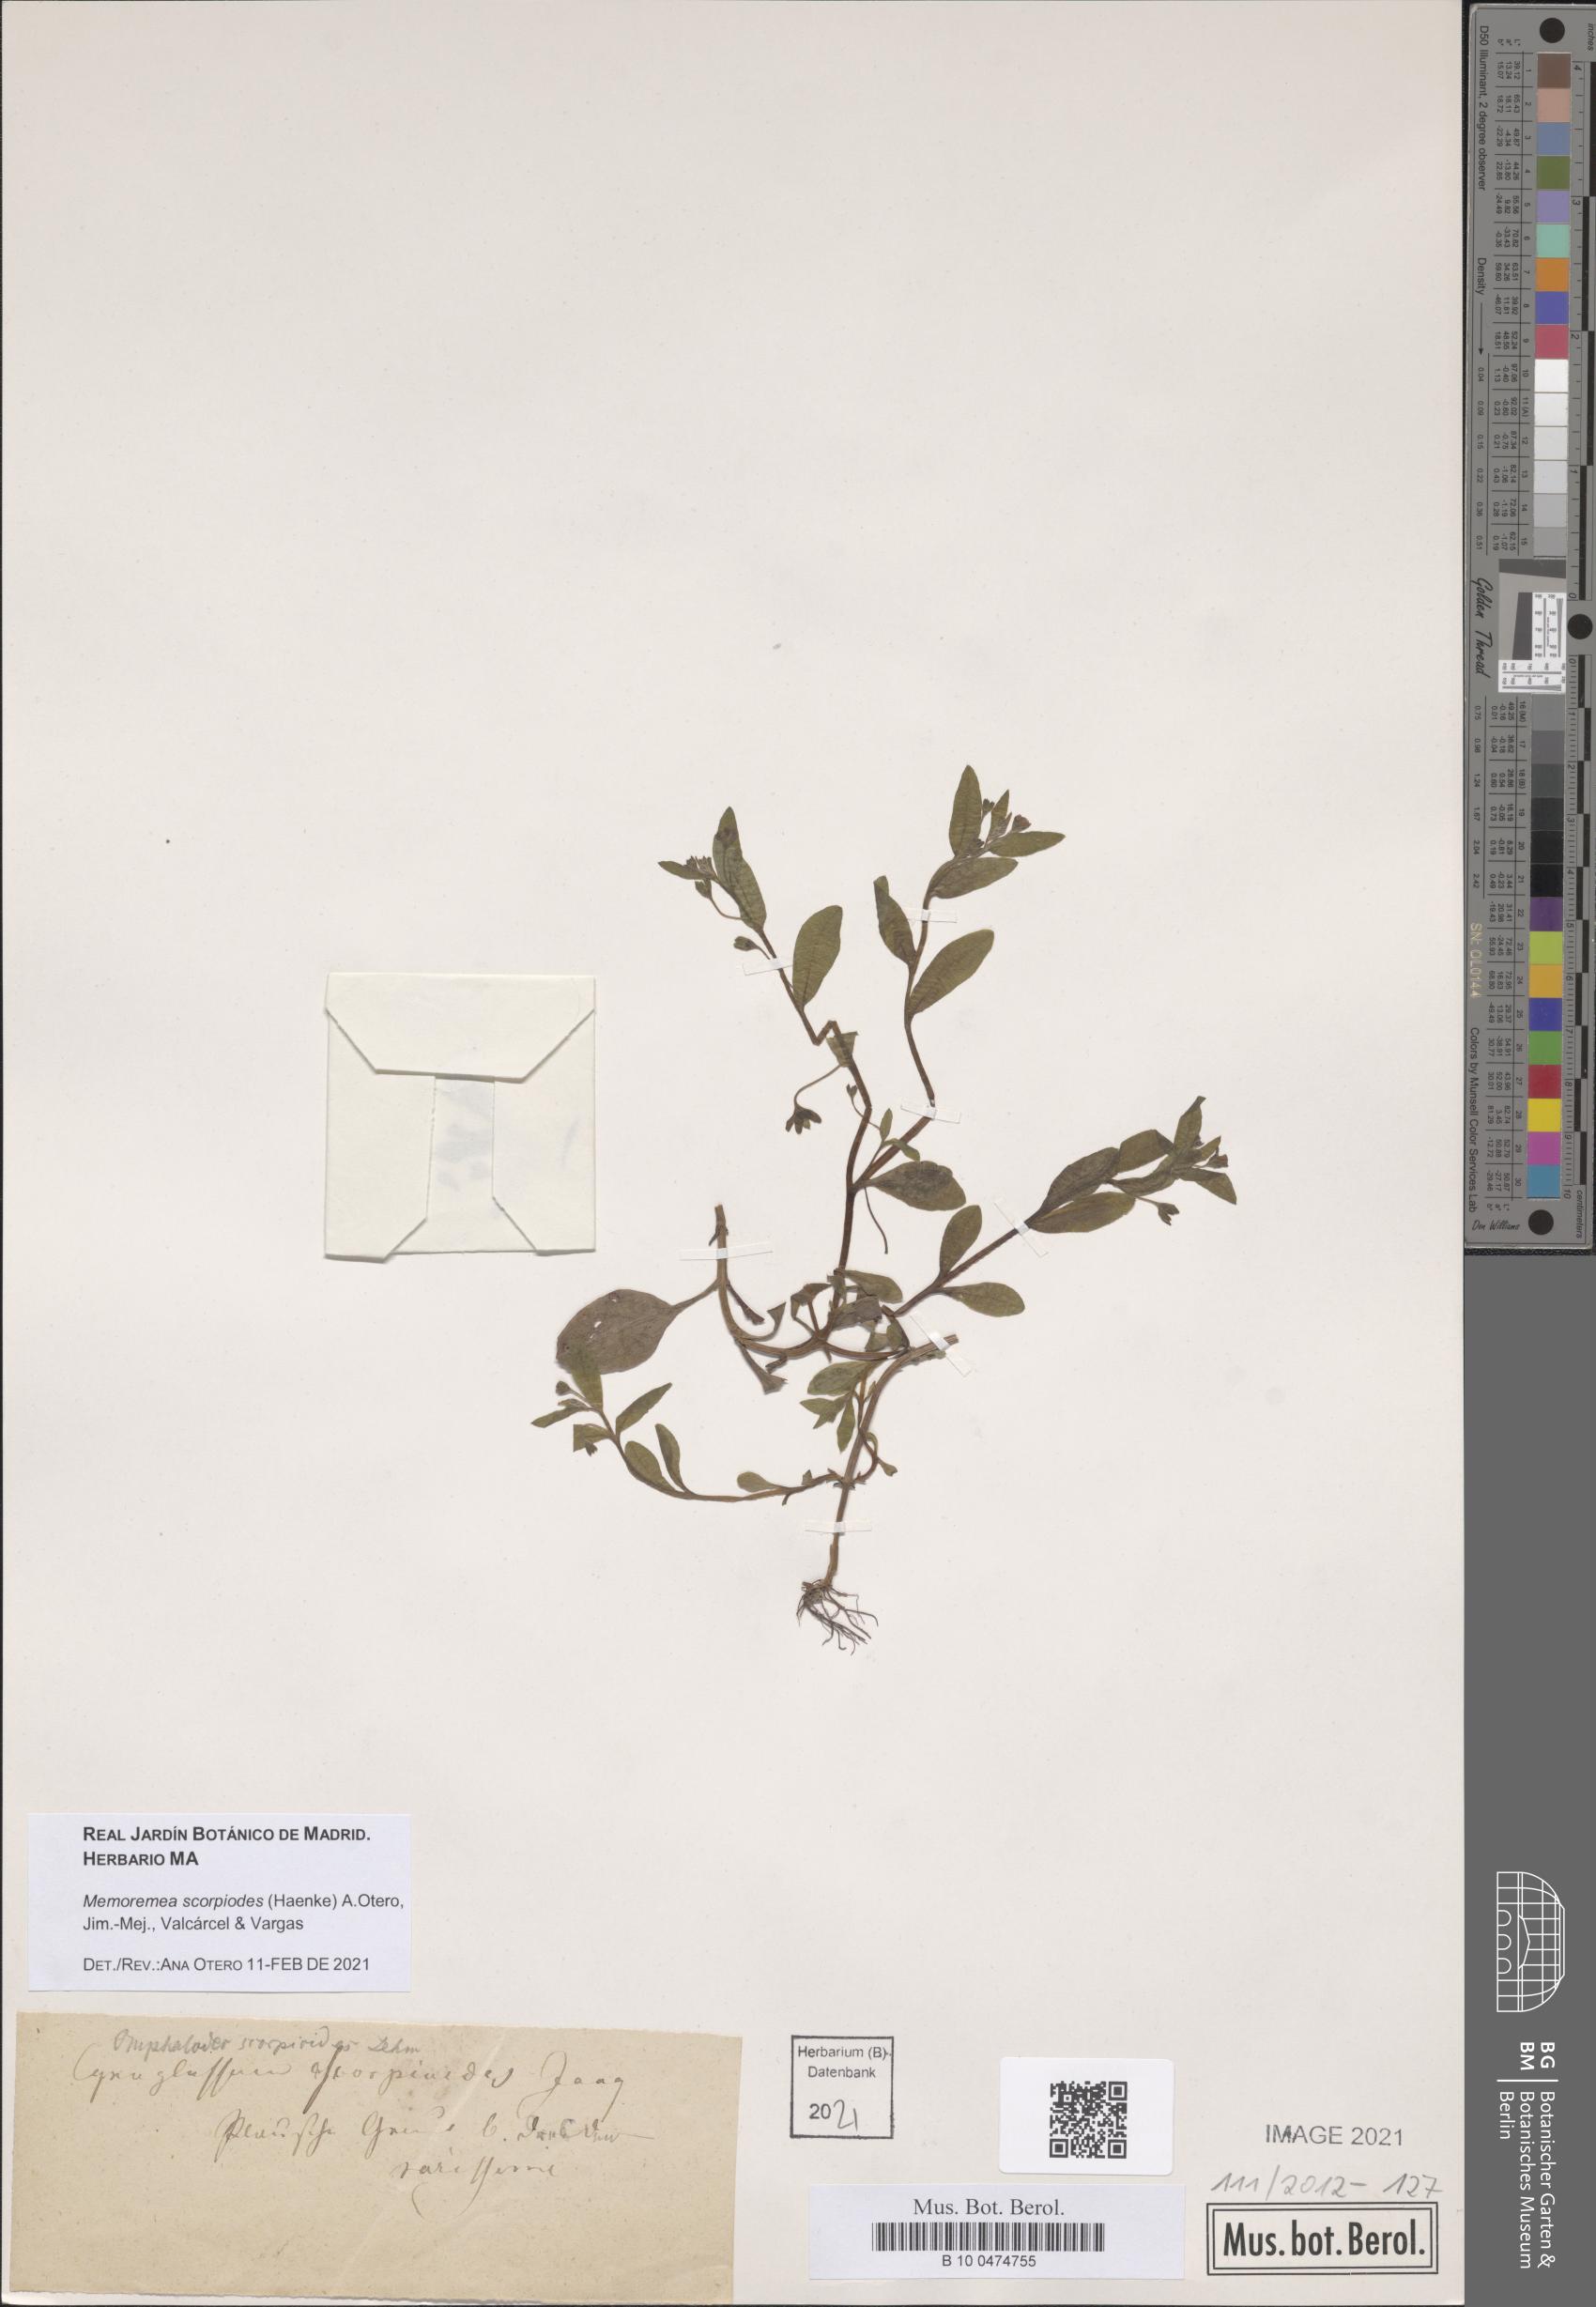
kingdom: Plantae
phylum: Tracheophyta
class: Magnoliopsida
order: Boraginales
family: Boraginaceae
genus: Memoremea
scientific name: Memoremea scorpioides
